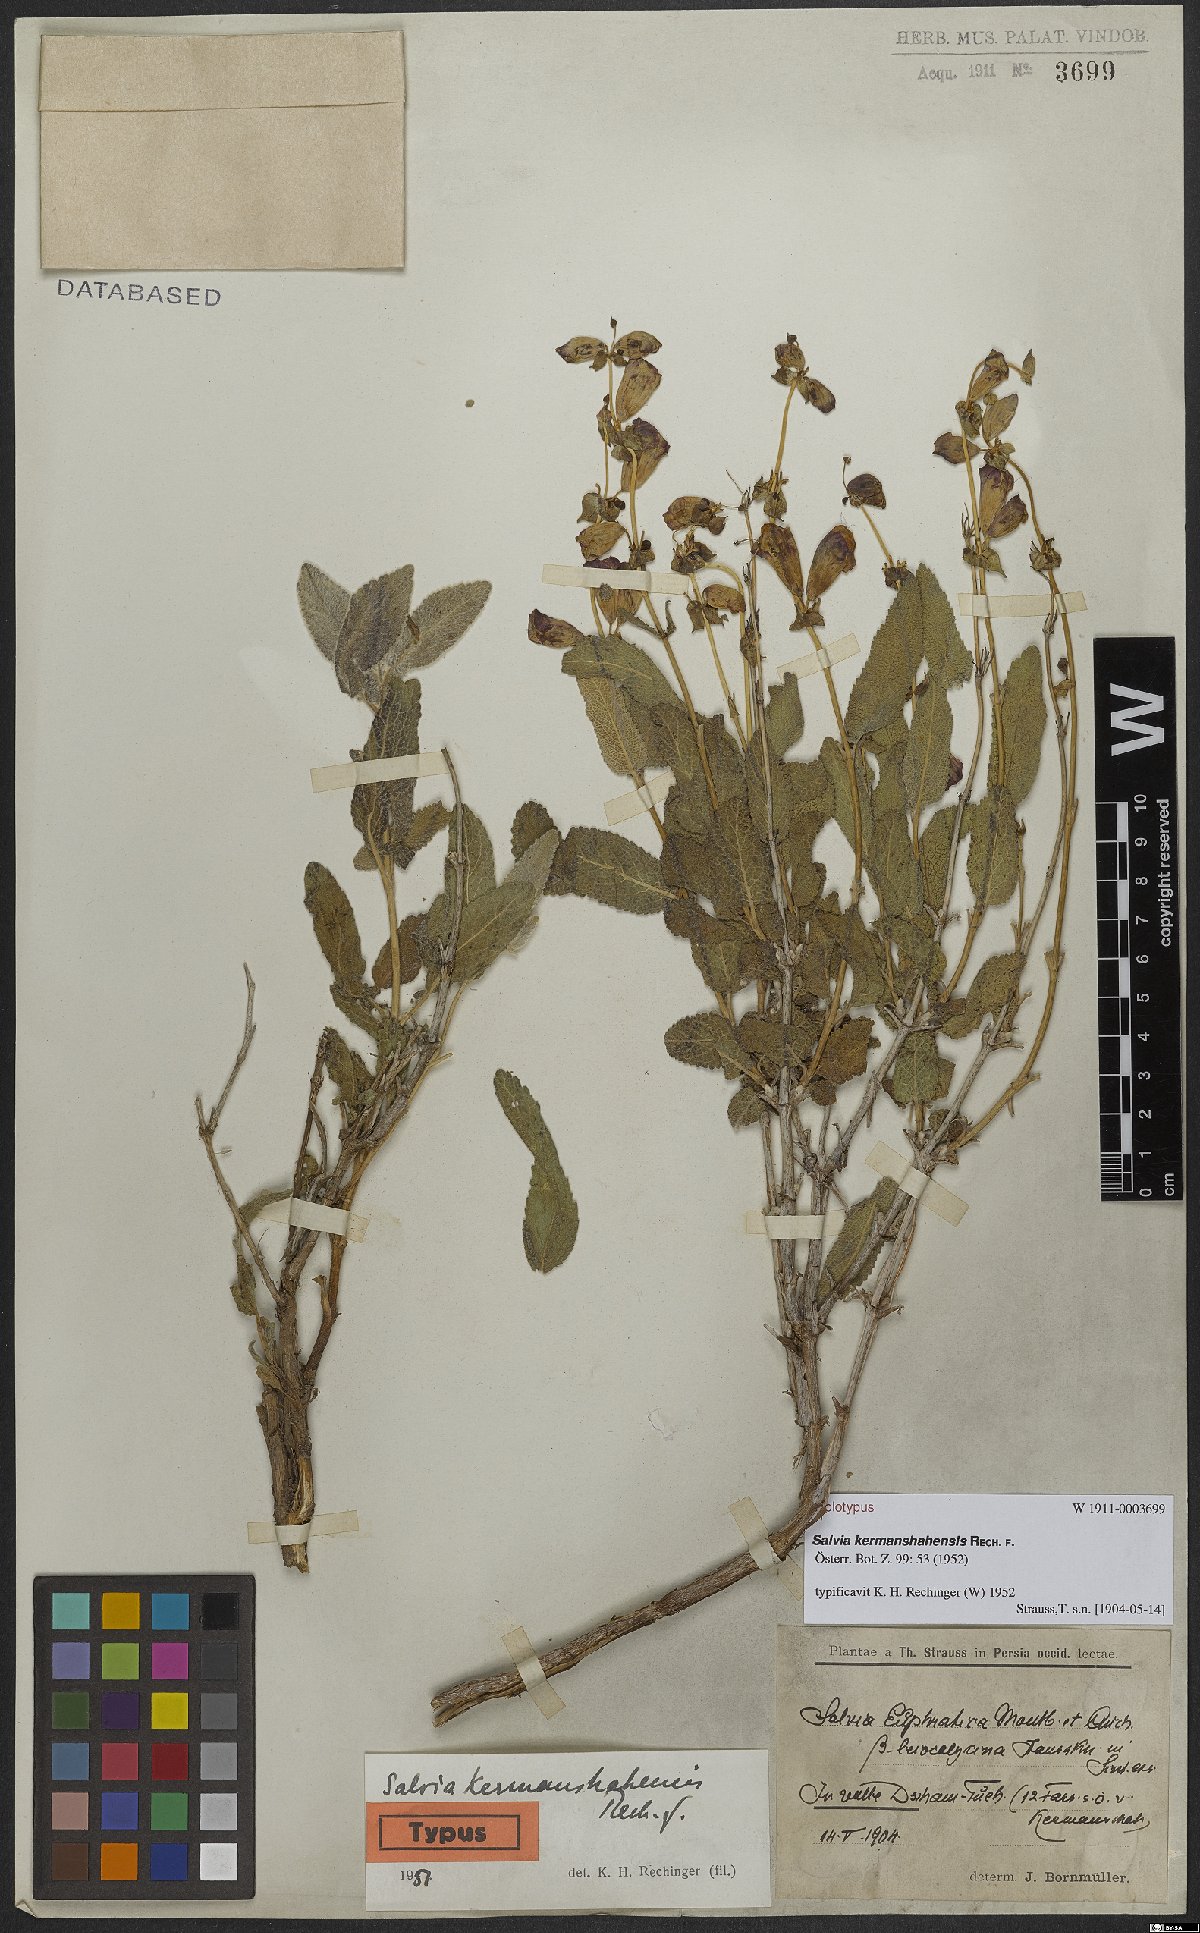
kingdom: Plantae
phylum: Tracheophyta
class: Magnoliopsida
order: Lamiales
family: Lamiaceae
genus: Salvia
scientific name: Salvia kermanshahensis
